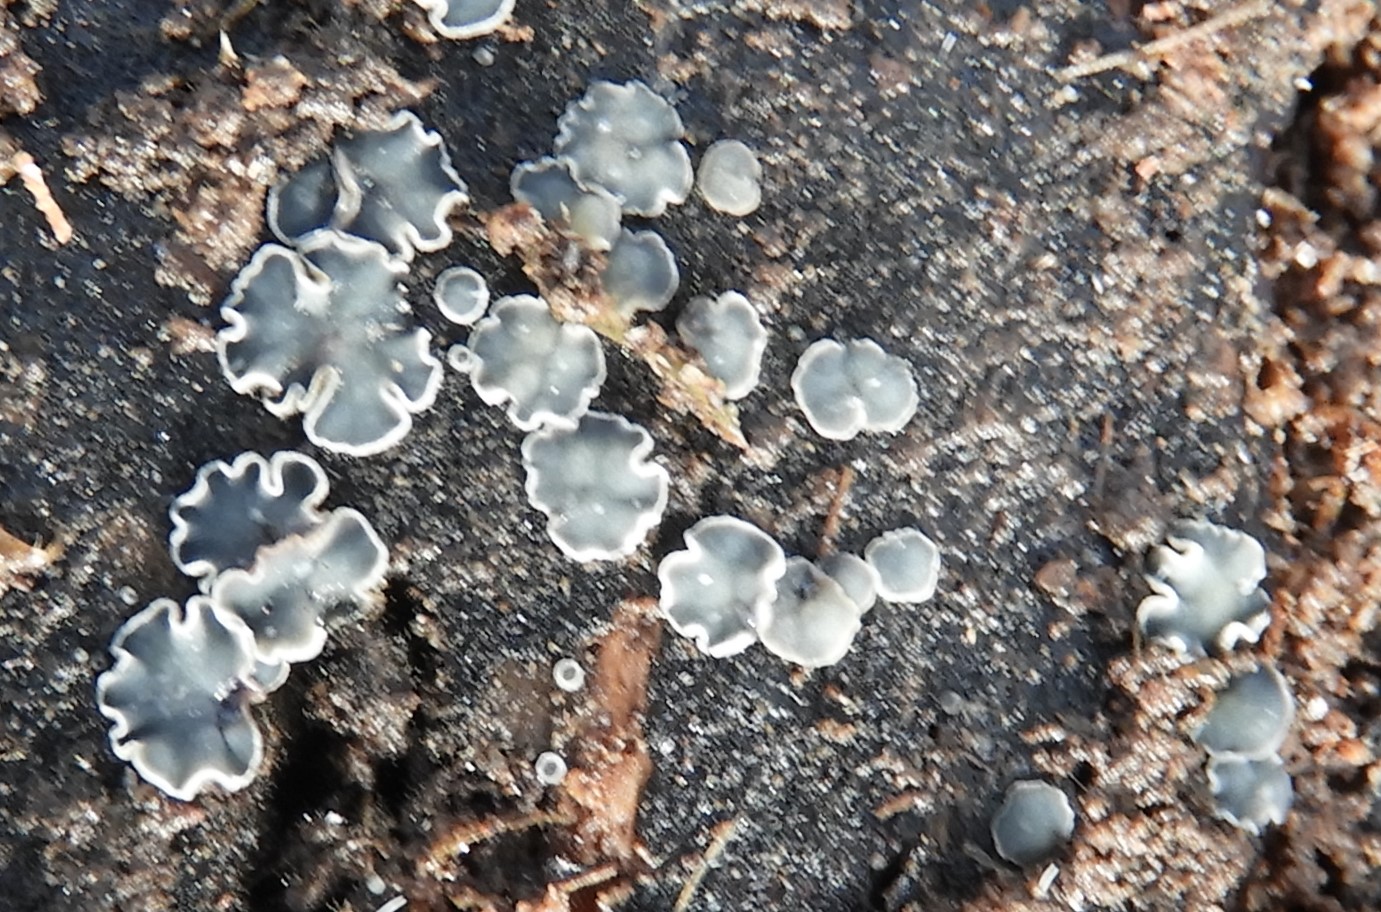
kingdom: Fungi
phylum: Ascomycota
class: Leotiomycetes
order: Helotiales
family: Mollisiaceae
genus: Mollisia
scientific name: Mollisia
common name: gråskive
